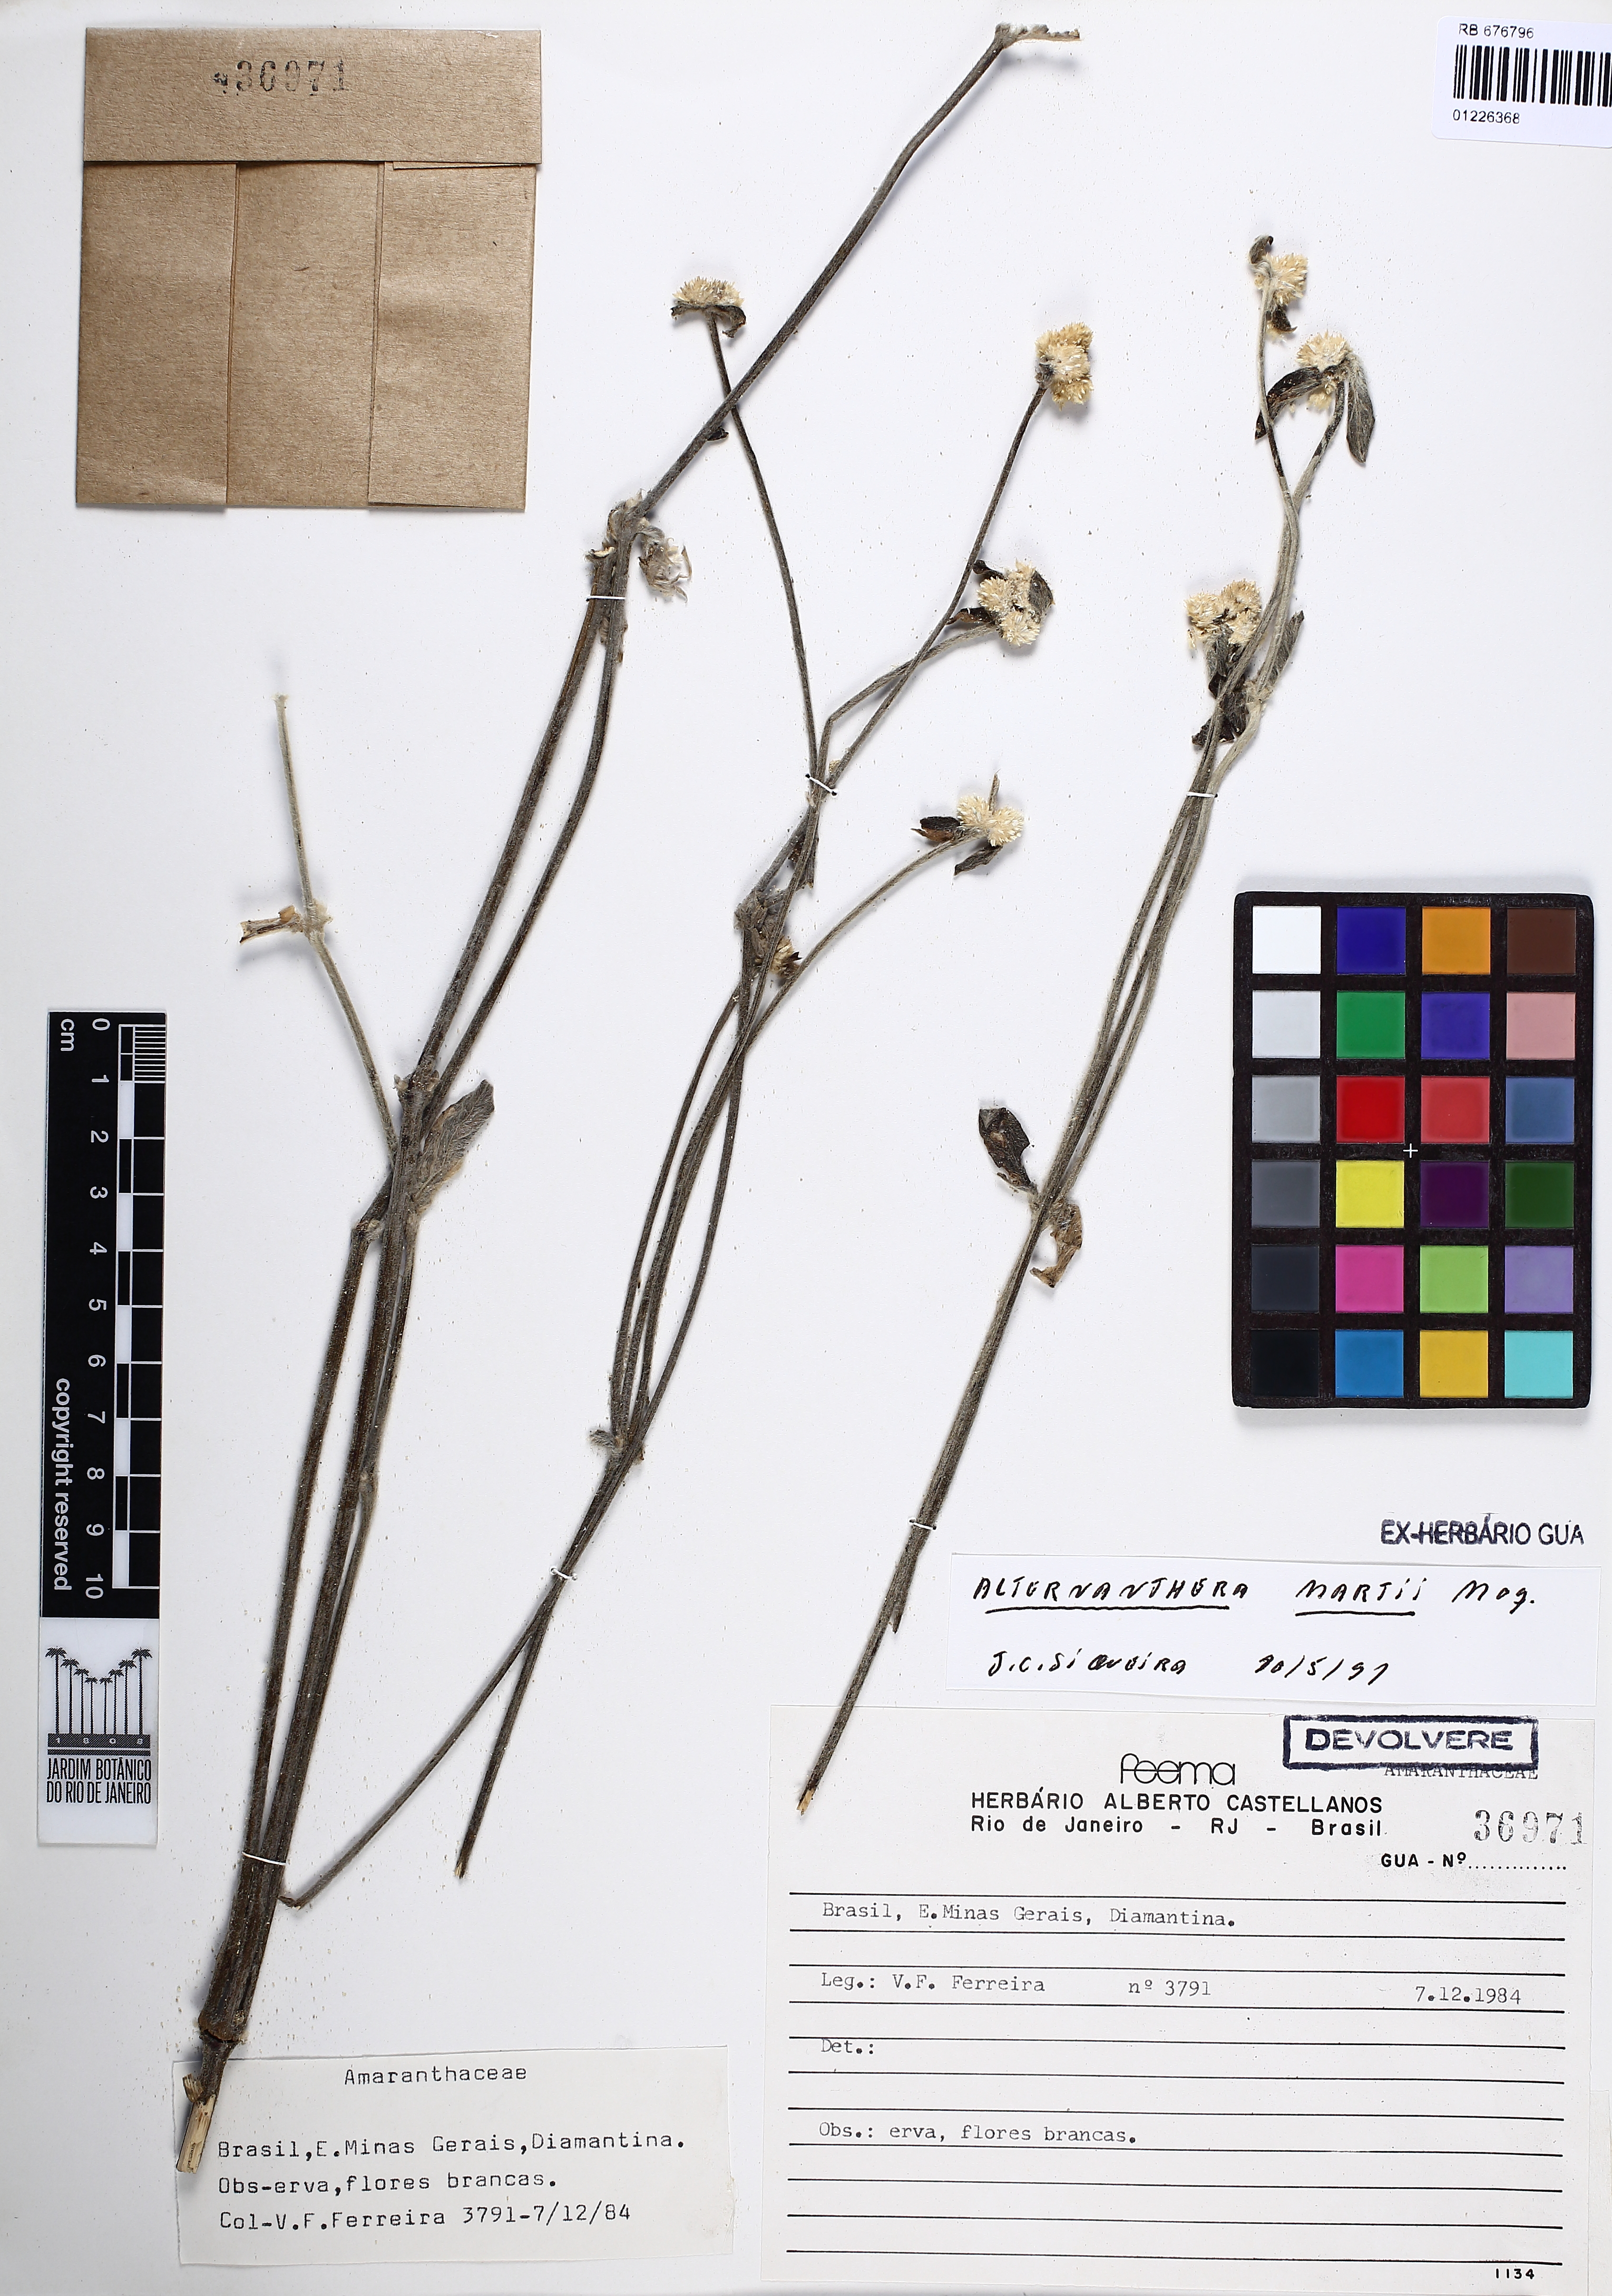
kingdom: Plantae
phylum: Tracheophyta
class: Magnoliopsida
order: Caryophyllales
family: Amaranthaceae
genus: Alternanthera
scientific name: Alternanthera martii
